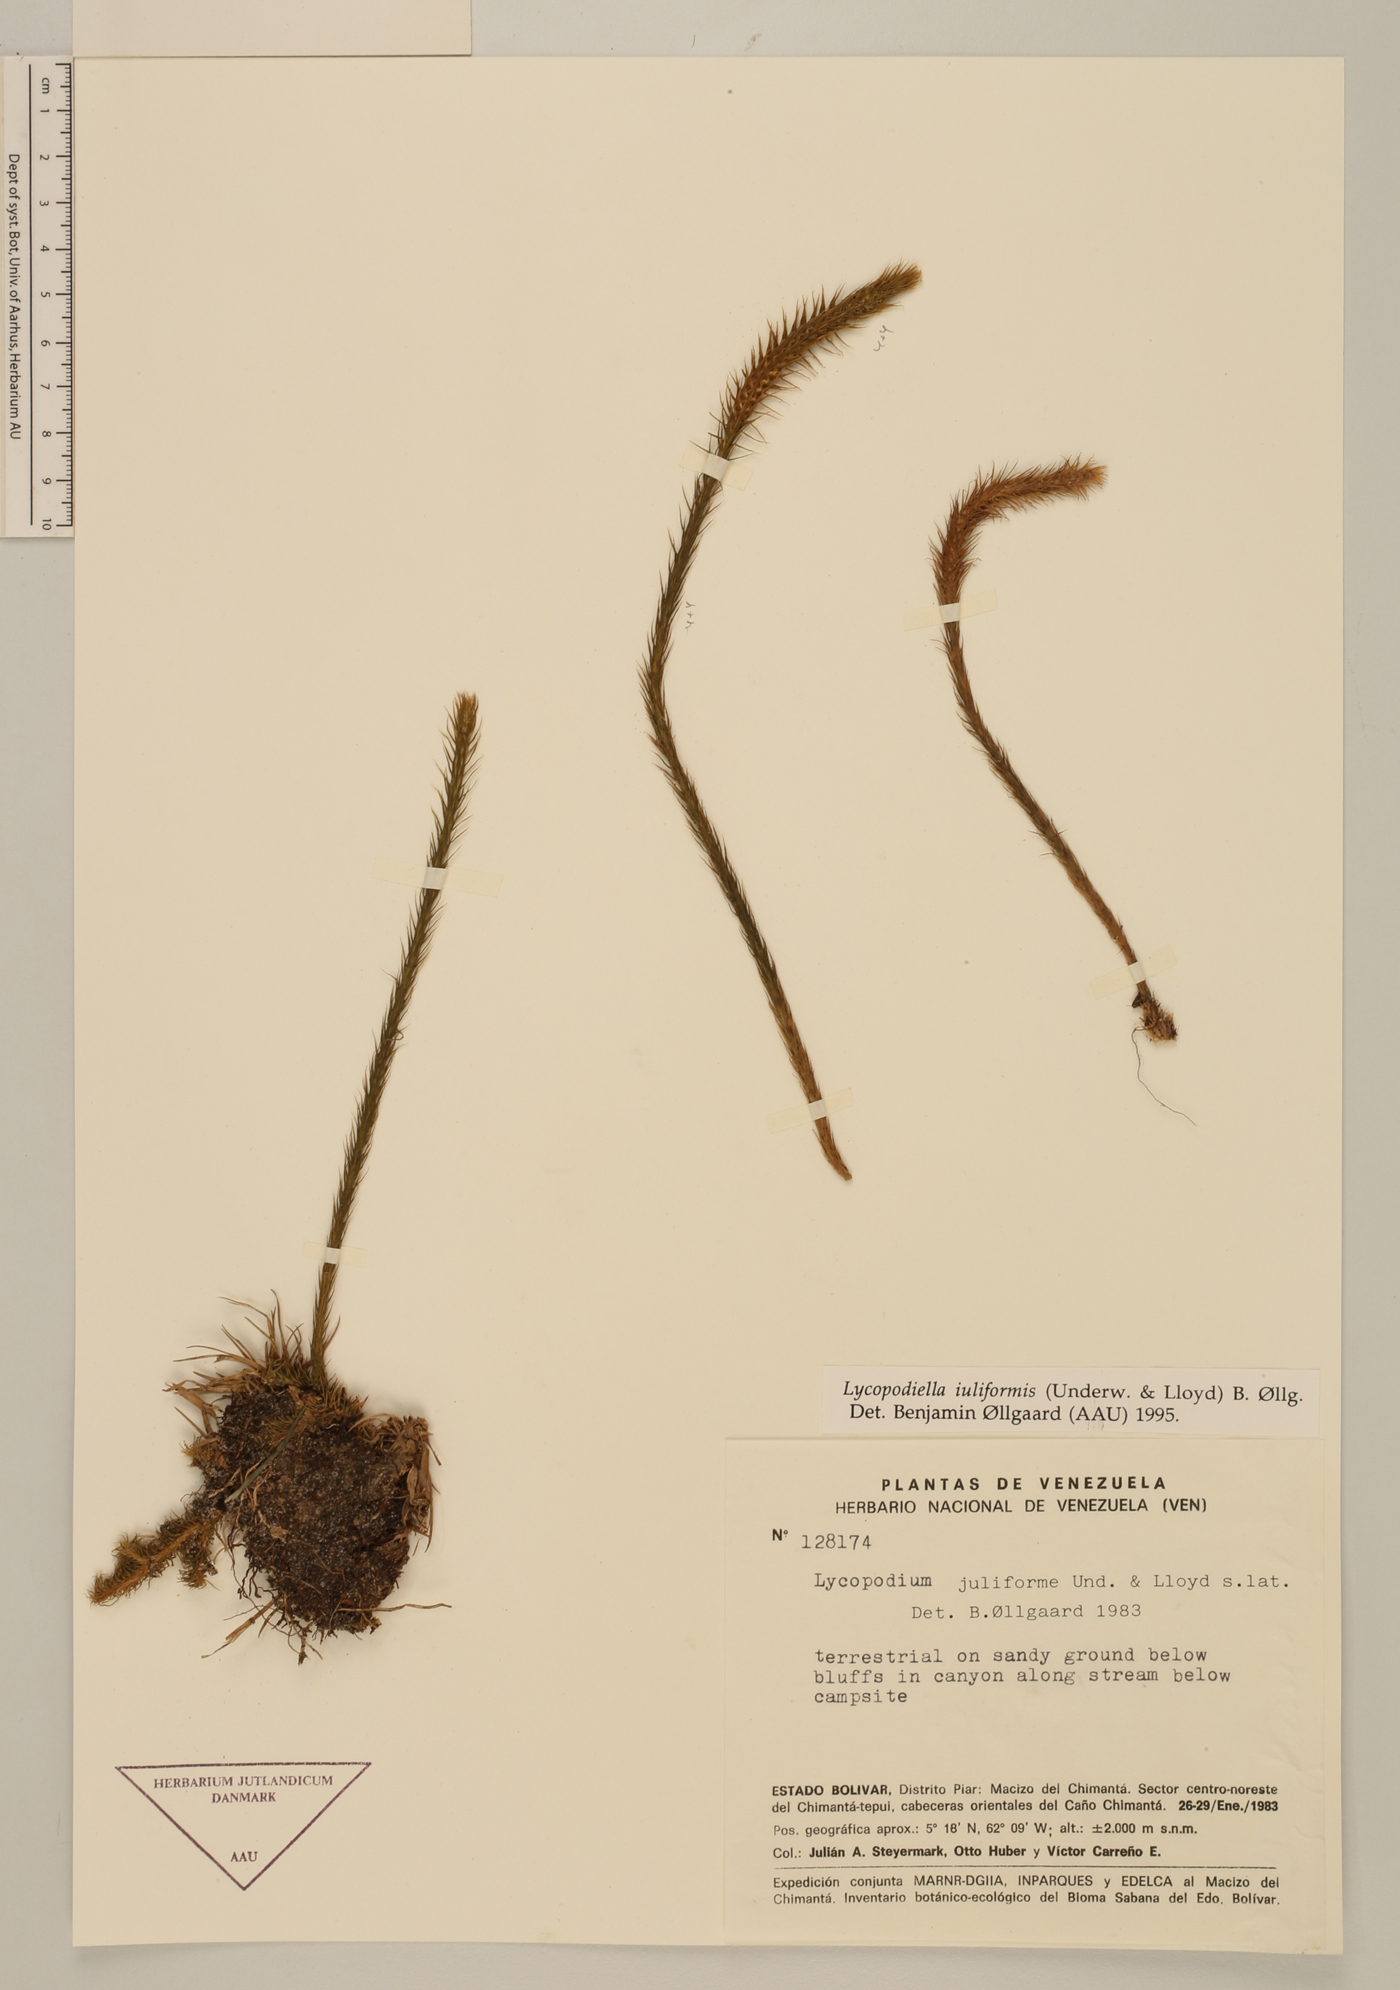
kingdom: Plantae
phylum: Tracheophyta
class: Lycopodiopsida
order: Lycopodiales
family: Lycopodiaceae
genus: Pseudolycopodiella
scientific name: Pseudolycopodiella iuliformis
